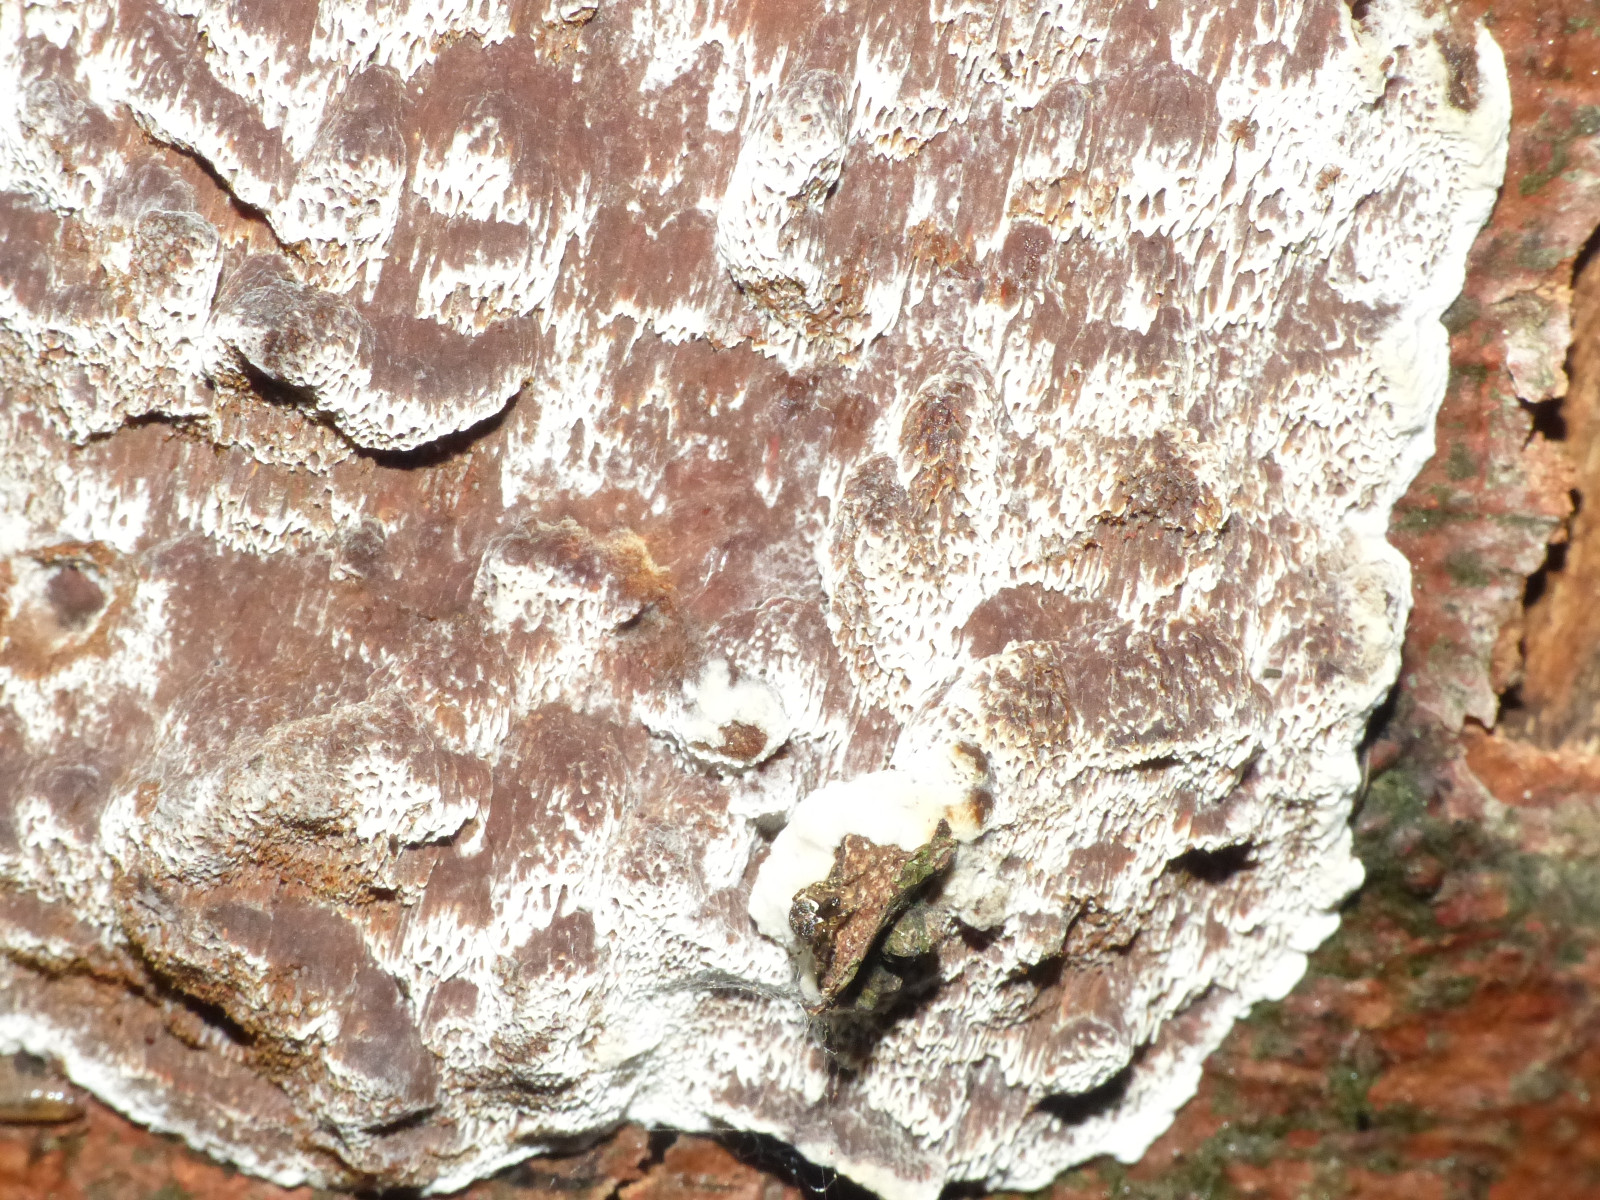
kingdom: Fungi
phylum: Basidiomycota
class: Agaricomycetes
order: Hymenochaetales
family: Hymenochaetaceae
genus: Mensularia
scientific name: Mensularia nodulosa
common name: bøge-spejlporesvamp
